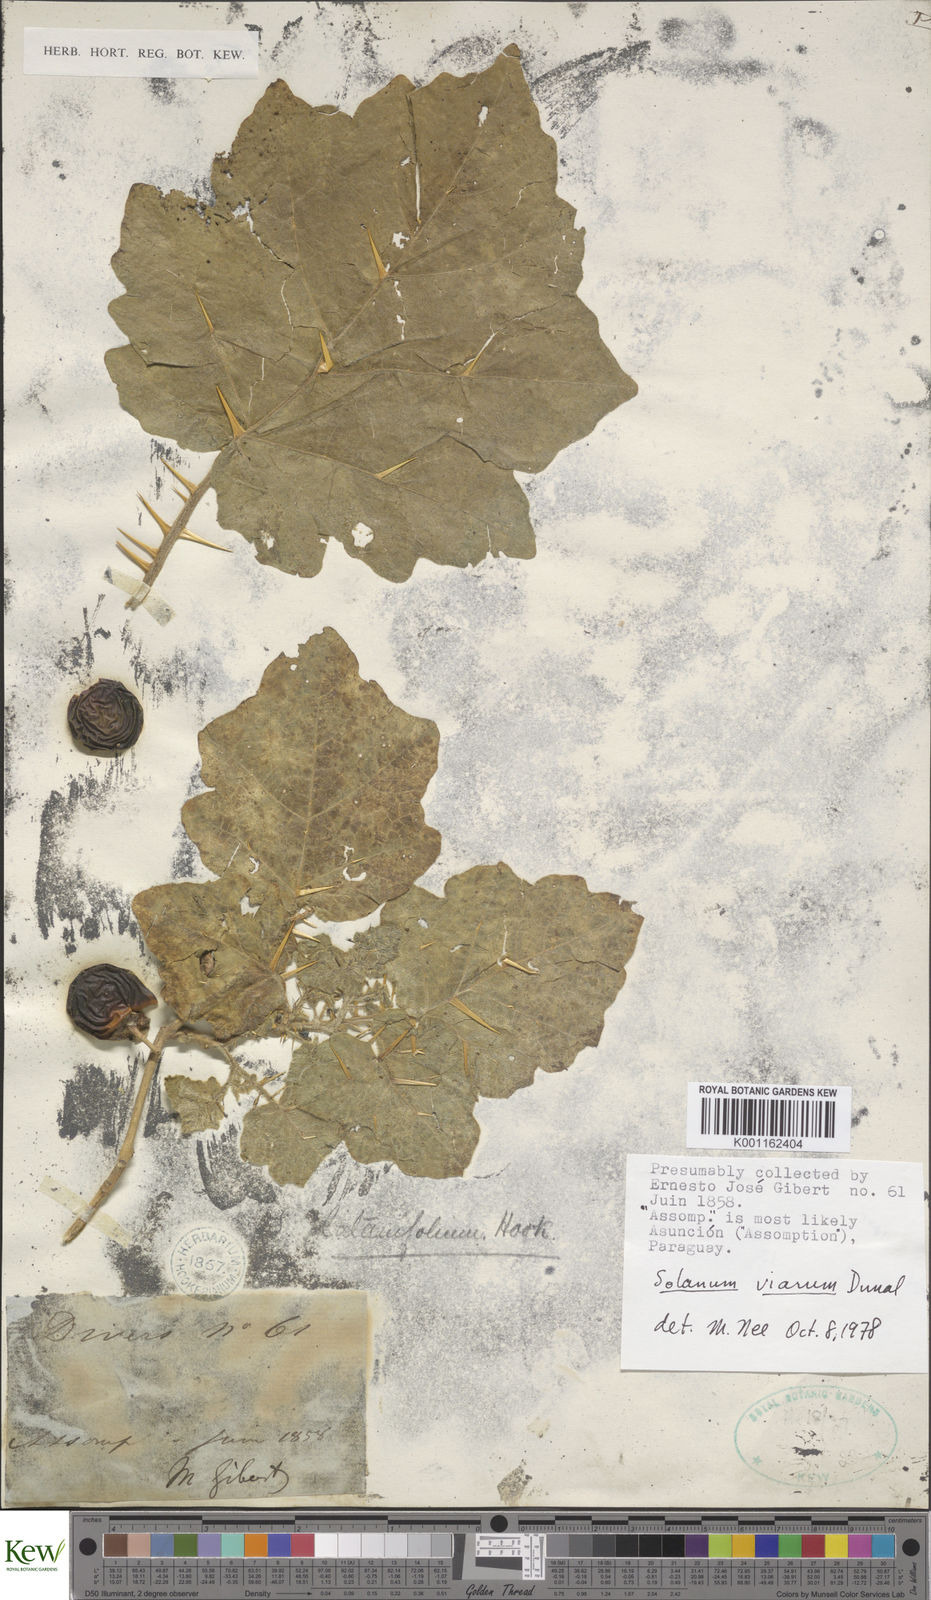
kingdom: Plantae
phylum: Tracheophyta
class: Magnoliopsida
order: Solanales
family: Solanaceae
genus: Solanum
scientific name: Solanum viarum
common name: Tropical soda apple
